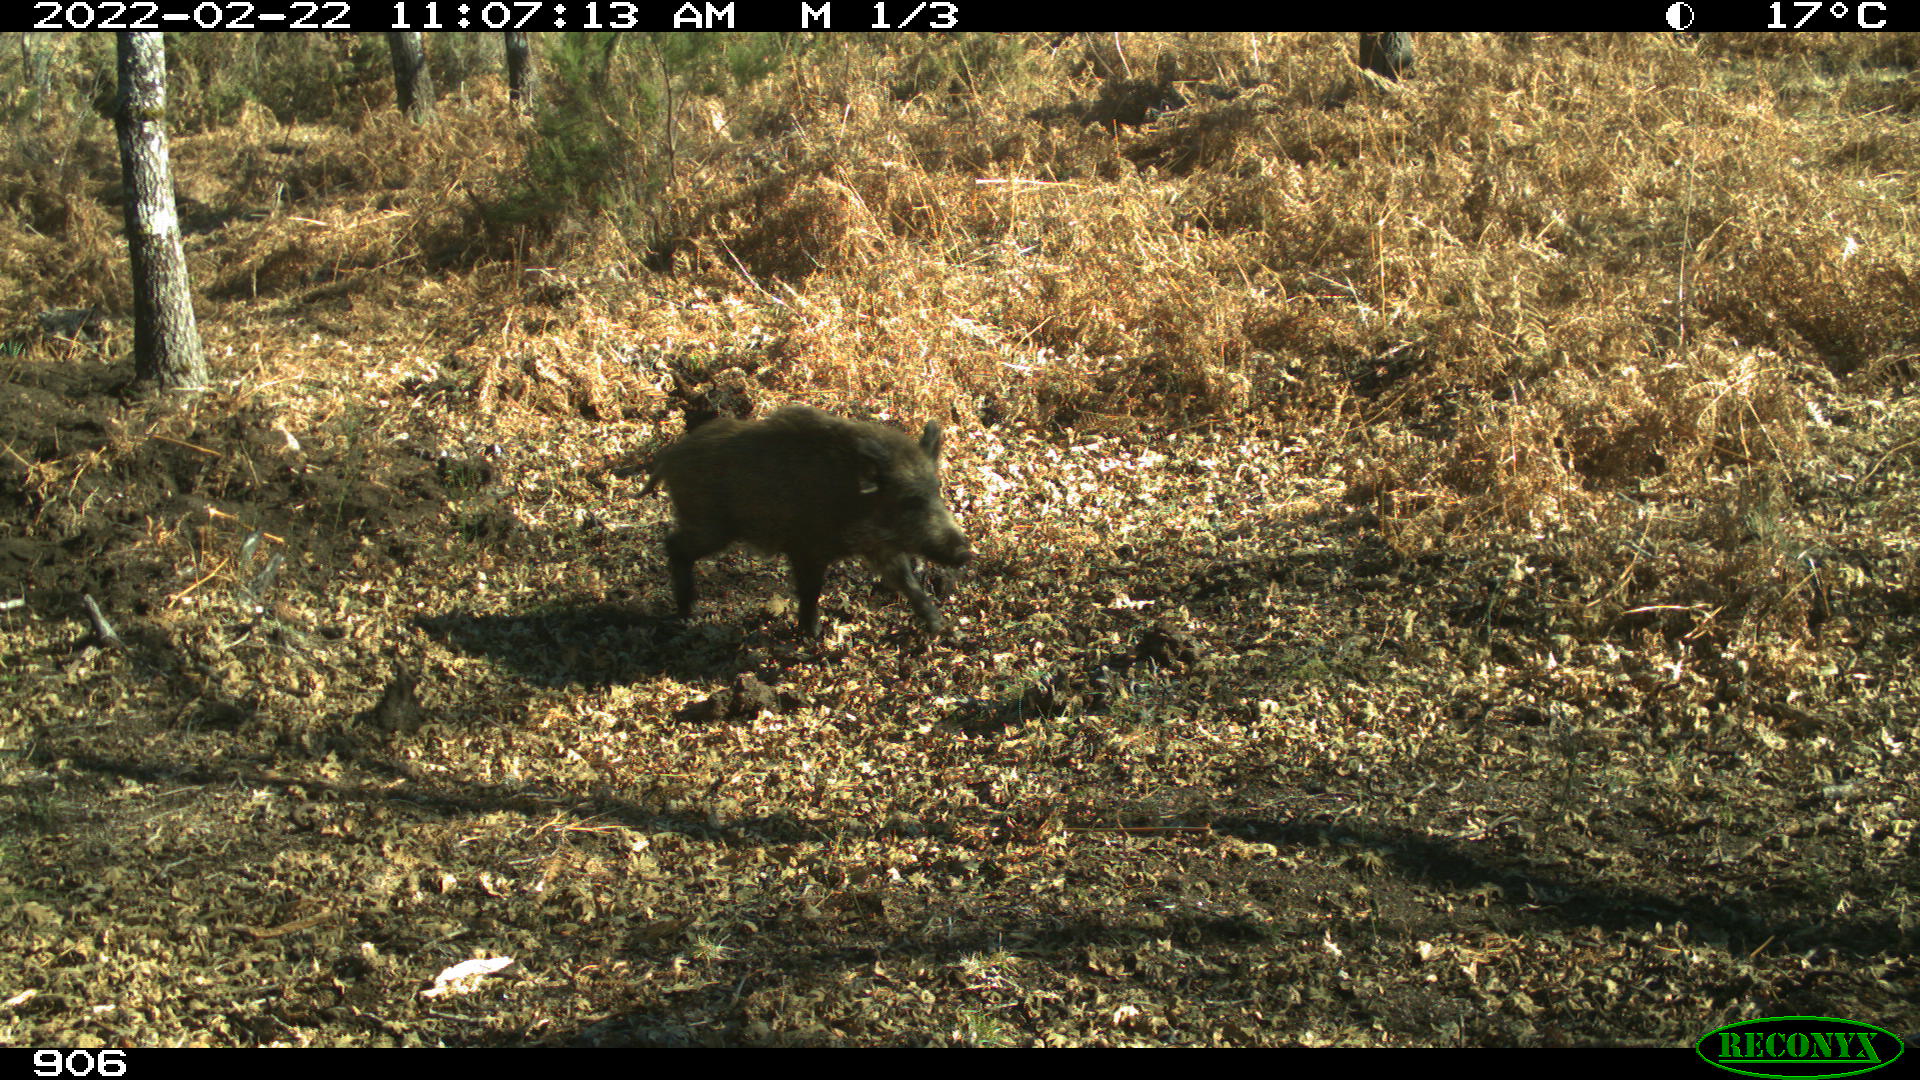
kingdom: Animalia
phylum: Chordata
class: Mammalia
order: Artiodactyla
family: Suidae
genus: Sus
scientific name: Sus scrofa
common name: Wild boar
